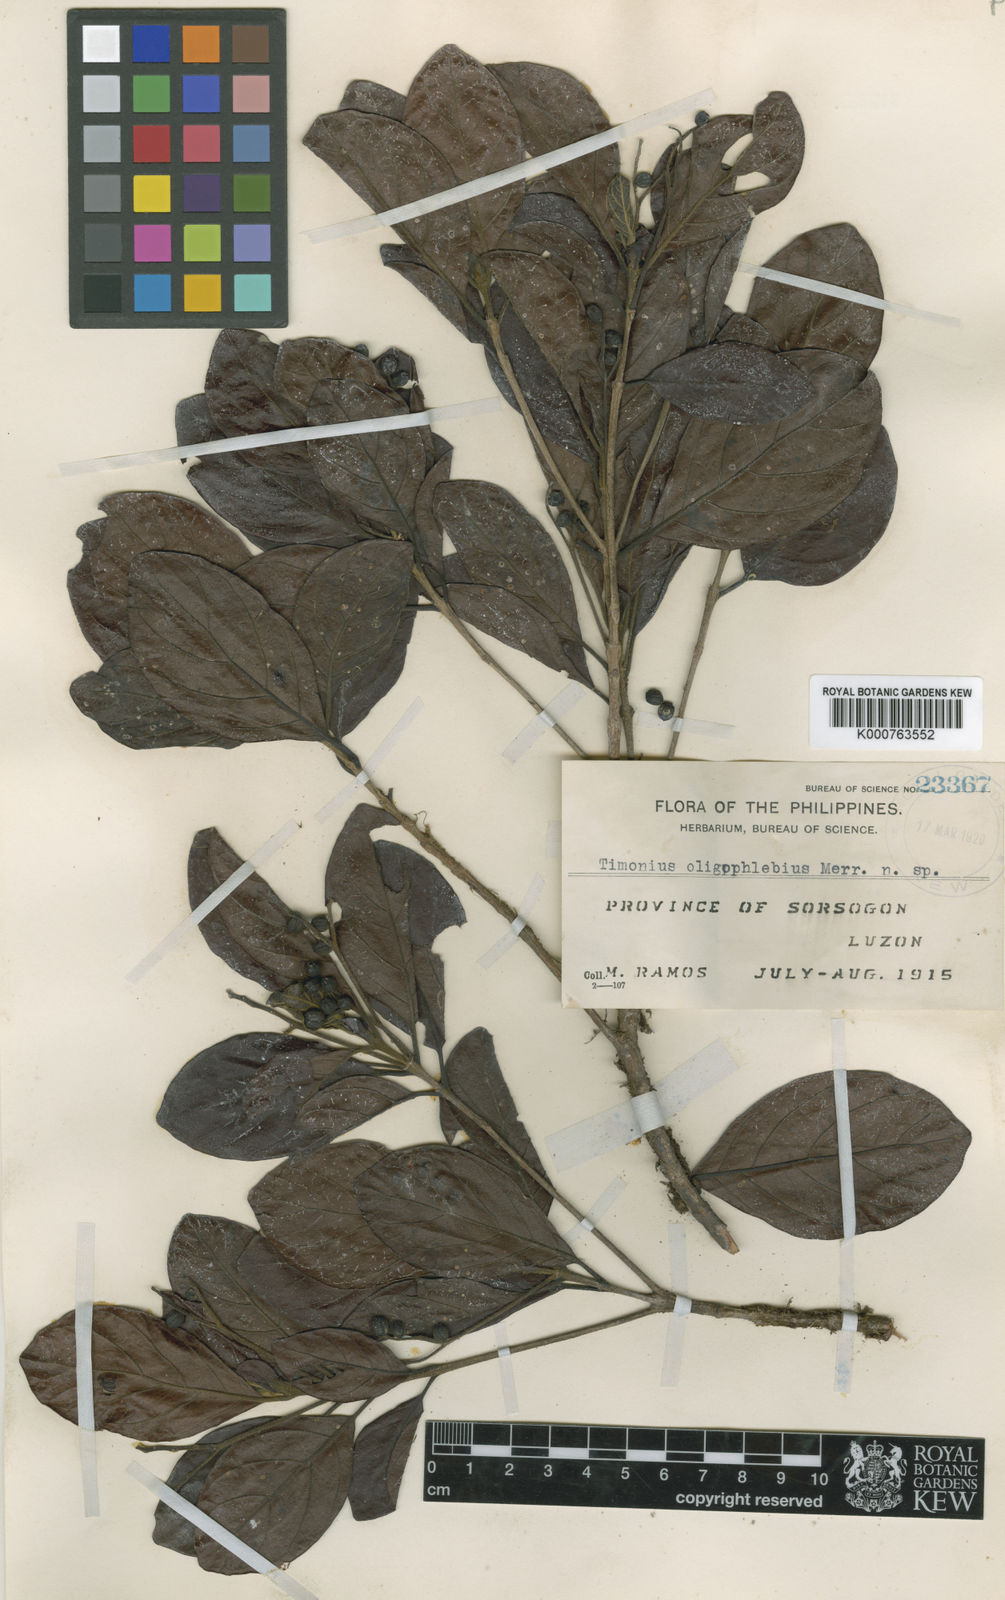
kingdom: Plantae
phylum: Tracheophyta
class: Magnoliopsida
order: Gentianales
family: Rubiaceae
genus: Timonius
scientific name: Timonius oligophlebius
